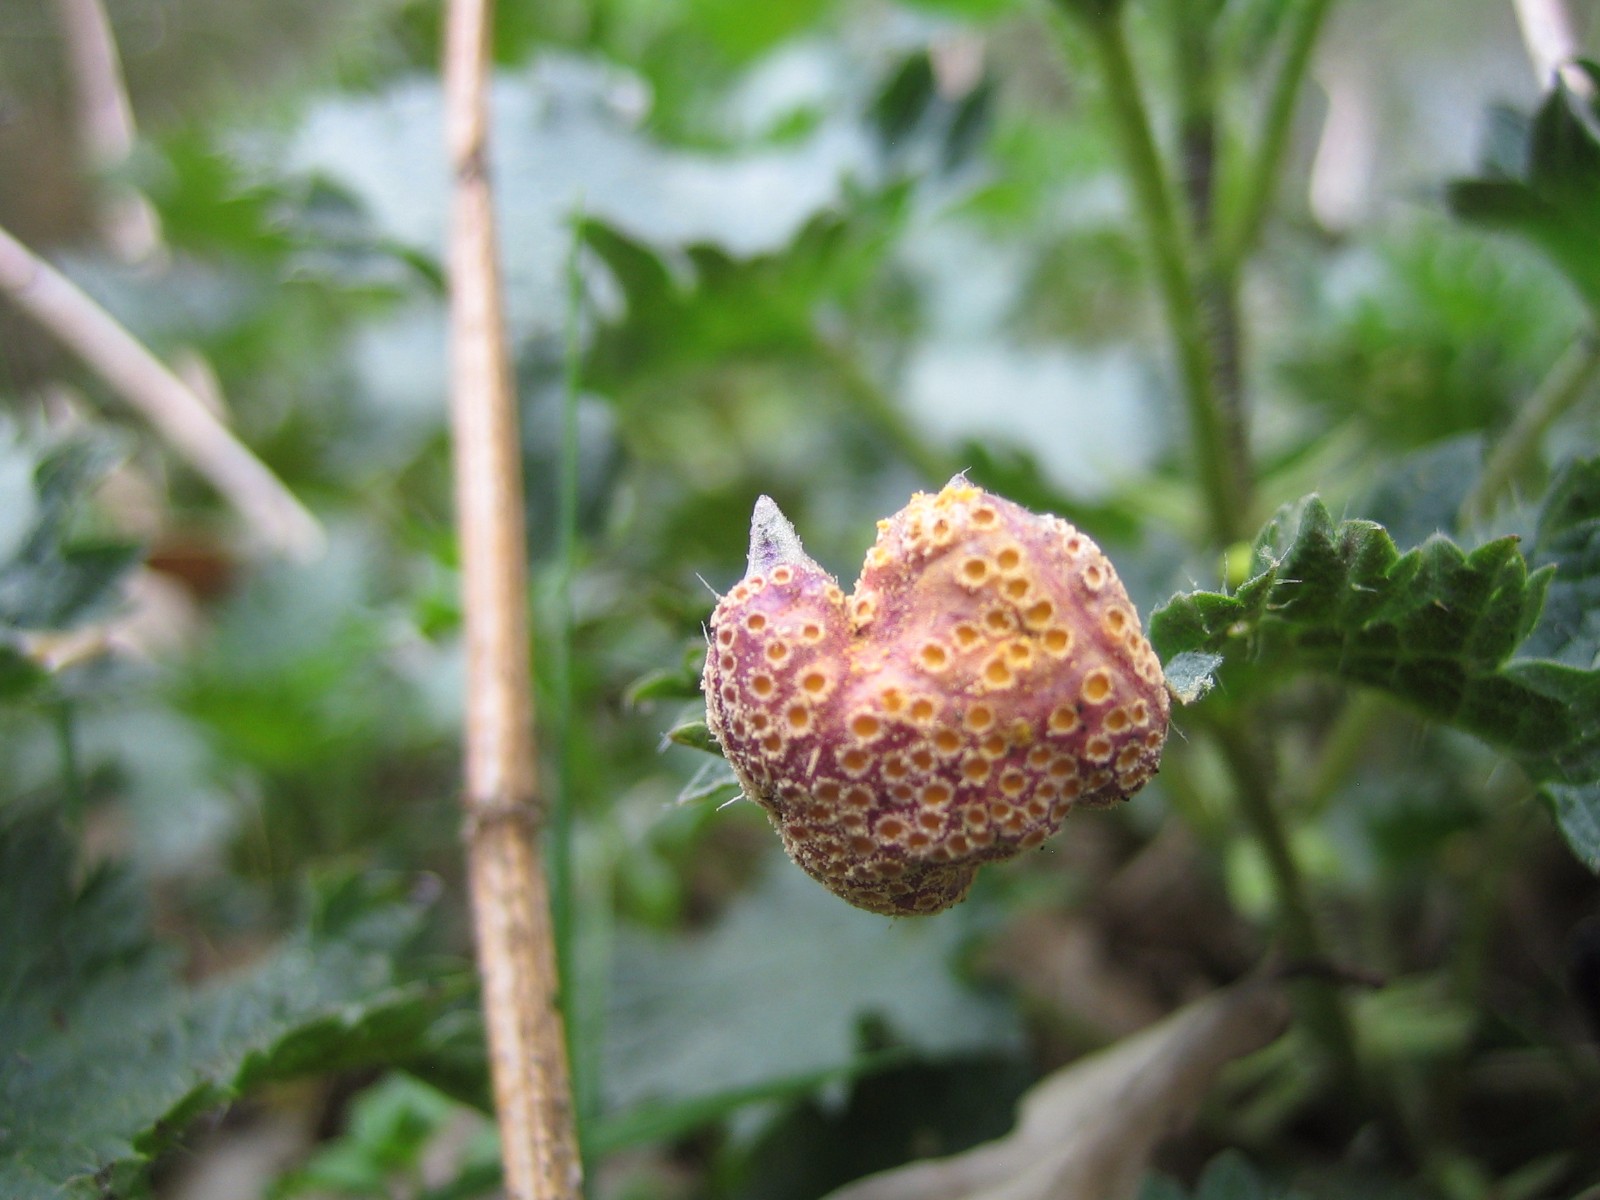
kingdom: Fungi
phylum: Basidiomycota
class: Pucciniomycetes
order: Pucciniales
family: Pucciniaceae
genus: Puccinia
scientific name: Puccinia urticata
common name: nældegalle-tvecellerust
